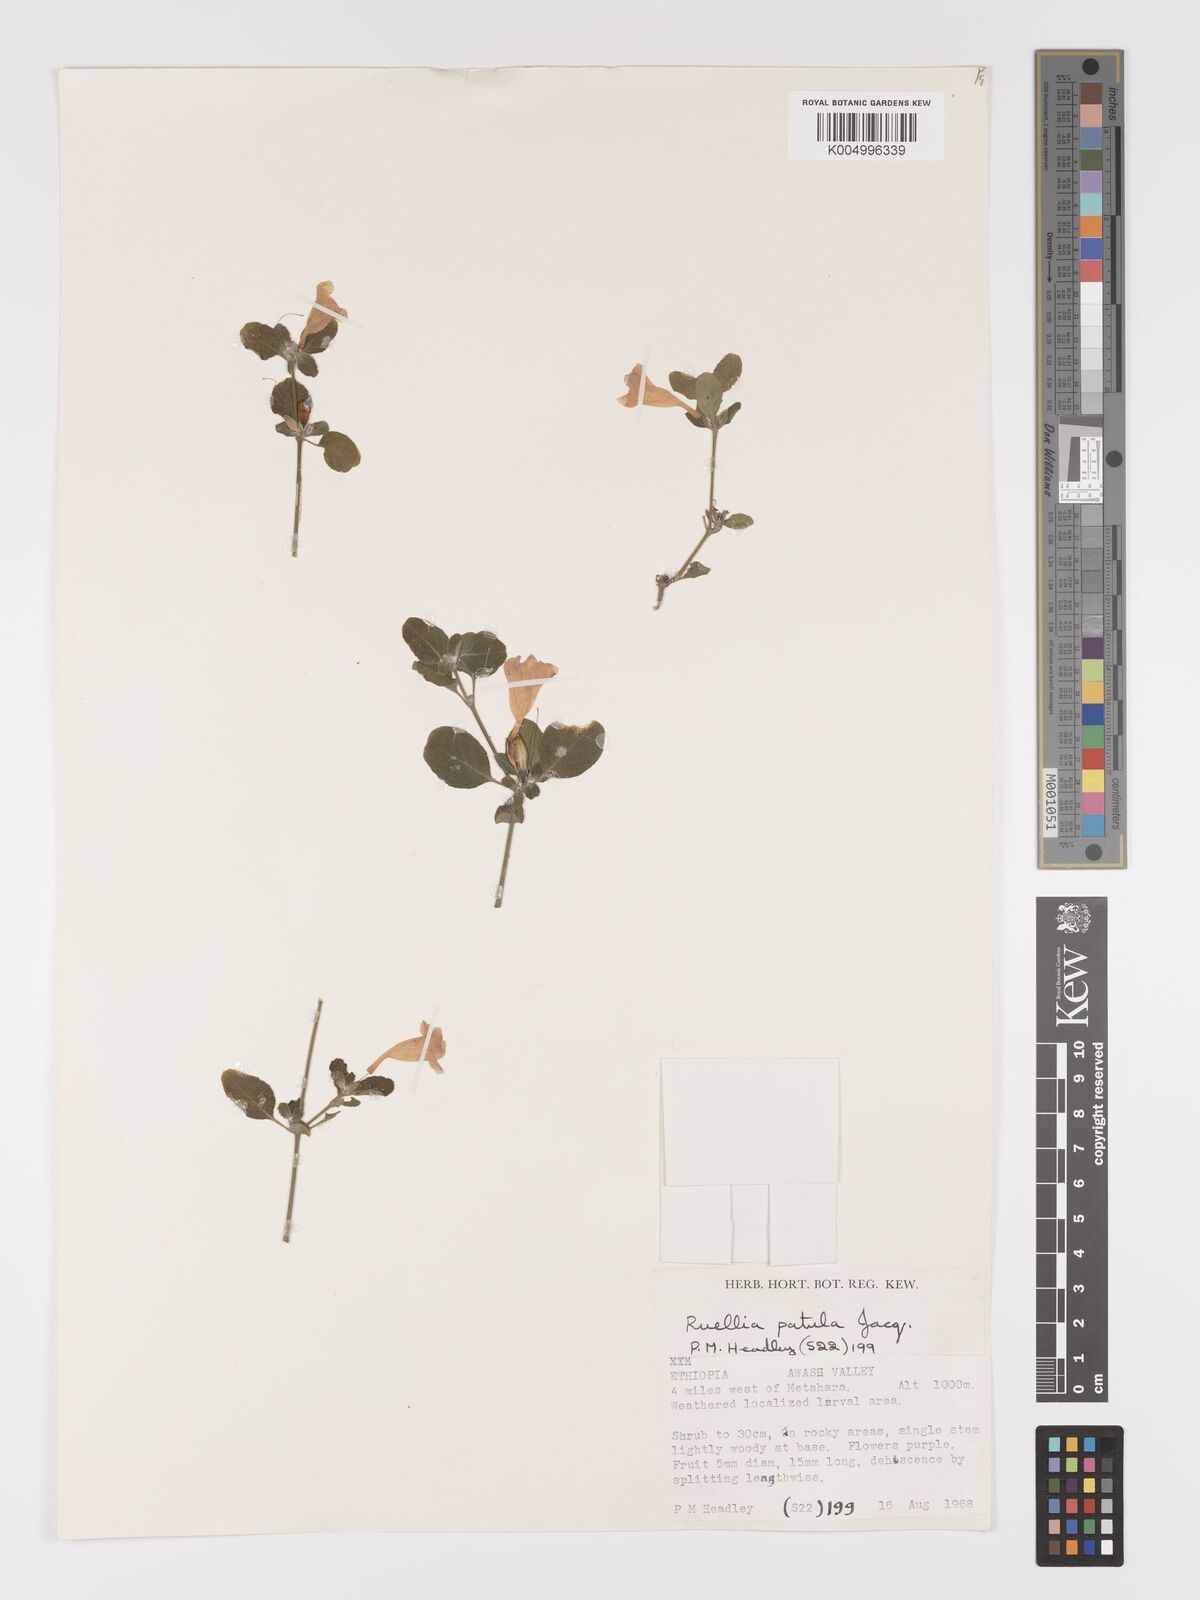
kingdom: Plantae
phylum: Tracheophyta
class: Magnoliopsida
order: Lamiales
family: Acanthaceae
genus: Ruellia
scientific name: Ruellia patula
